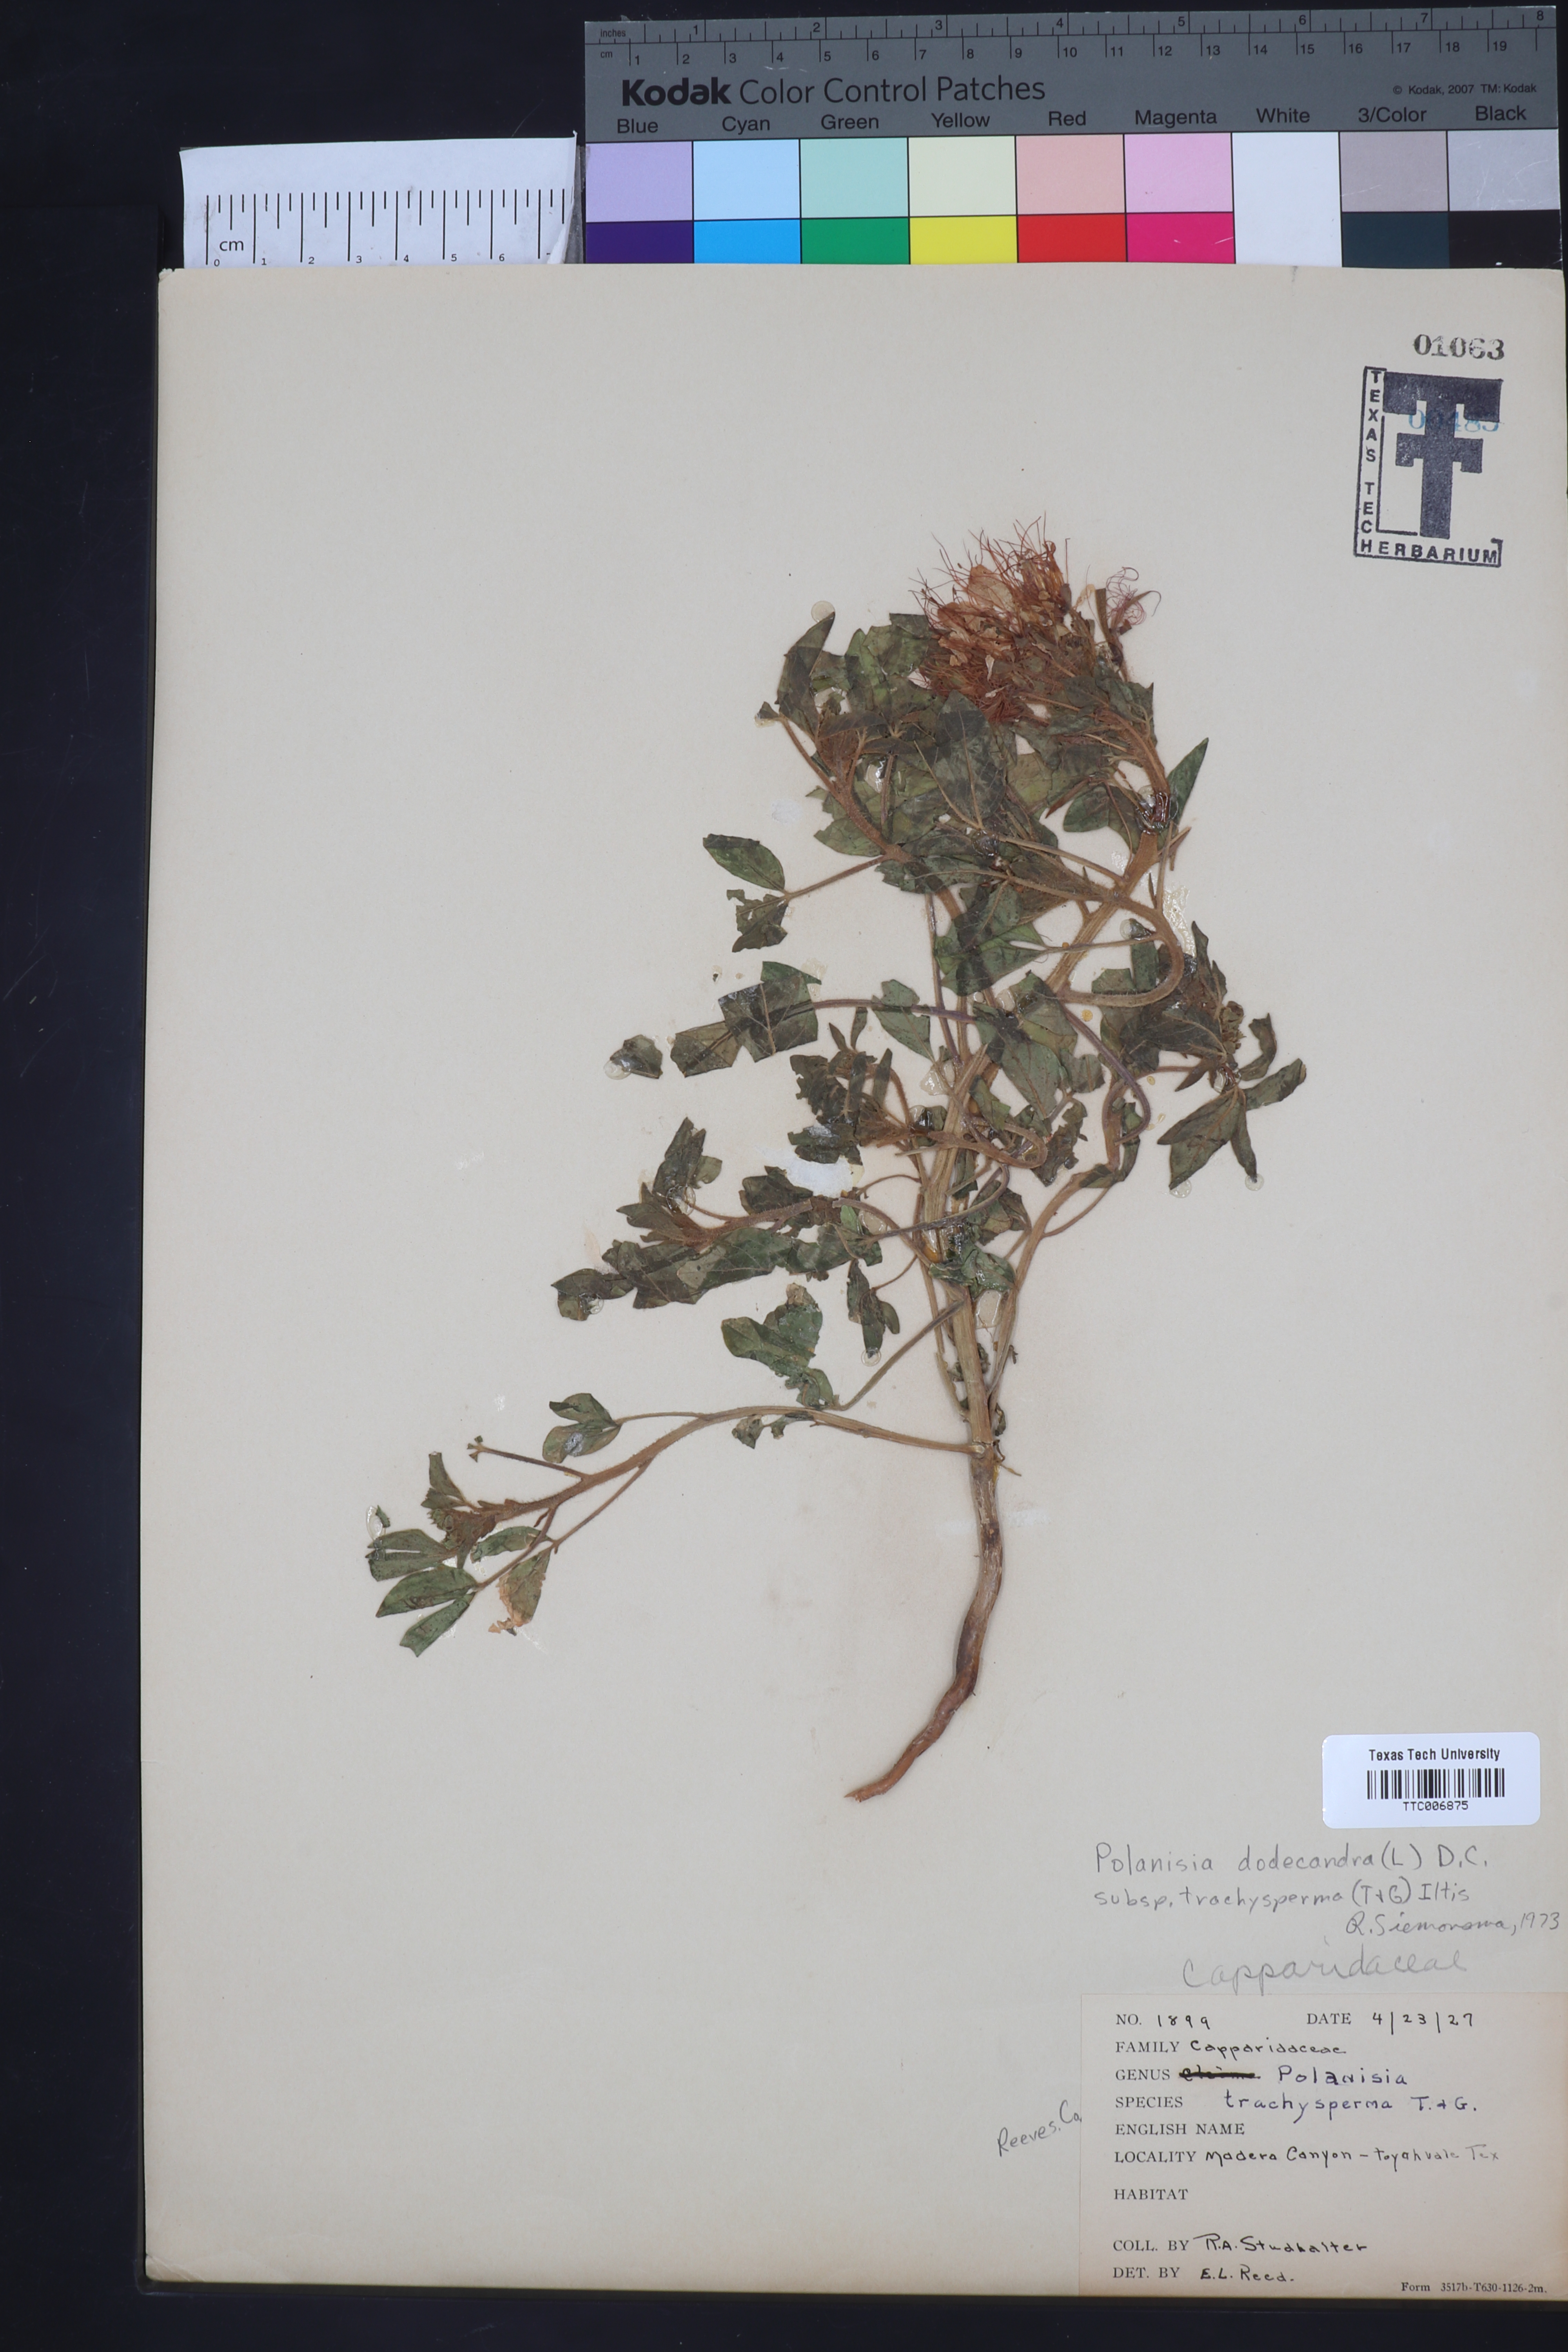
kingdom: Plantae
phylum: Tracheophyta
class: Magnoliopsida
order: Brassicales
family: Cleomaceae
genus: Polanisia
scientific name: Polanisia trachysperma
